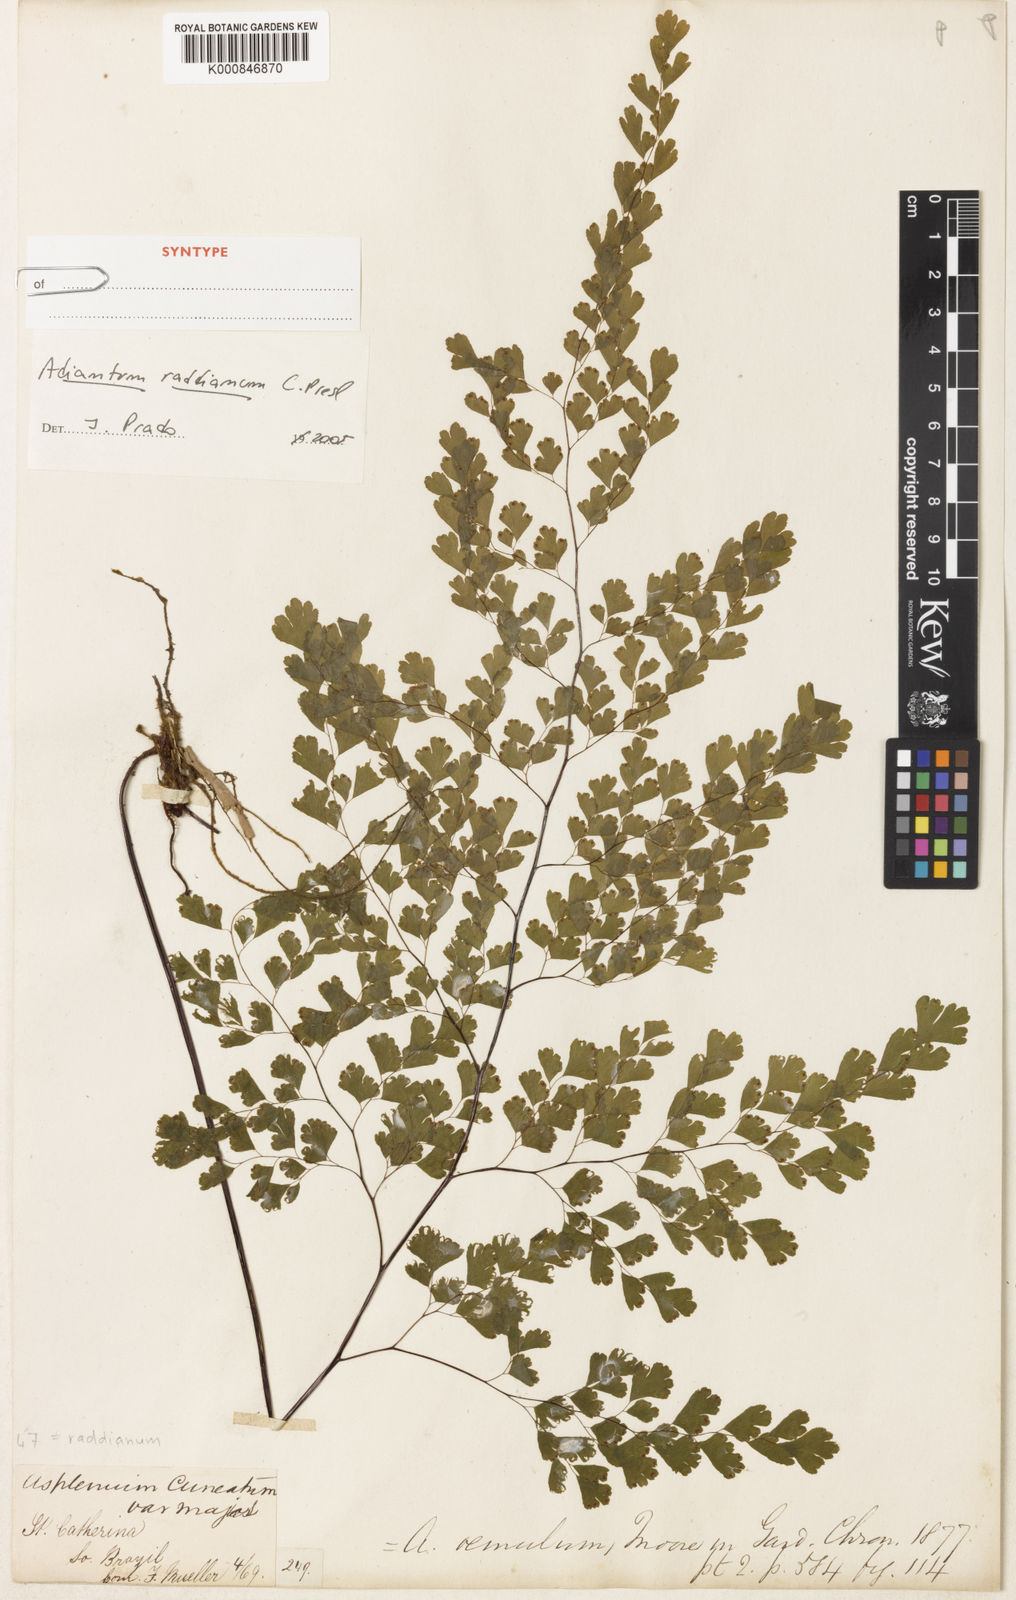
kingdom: Plantae
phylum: Tracheophyta
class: Polypodiopsida
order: Polypodiales
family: Pteridaceae
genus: Adiantum
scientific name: Adiantum raddianum
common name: Delta maidenhair fern
